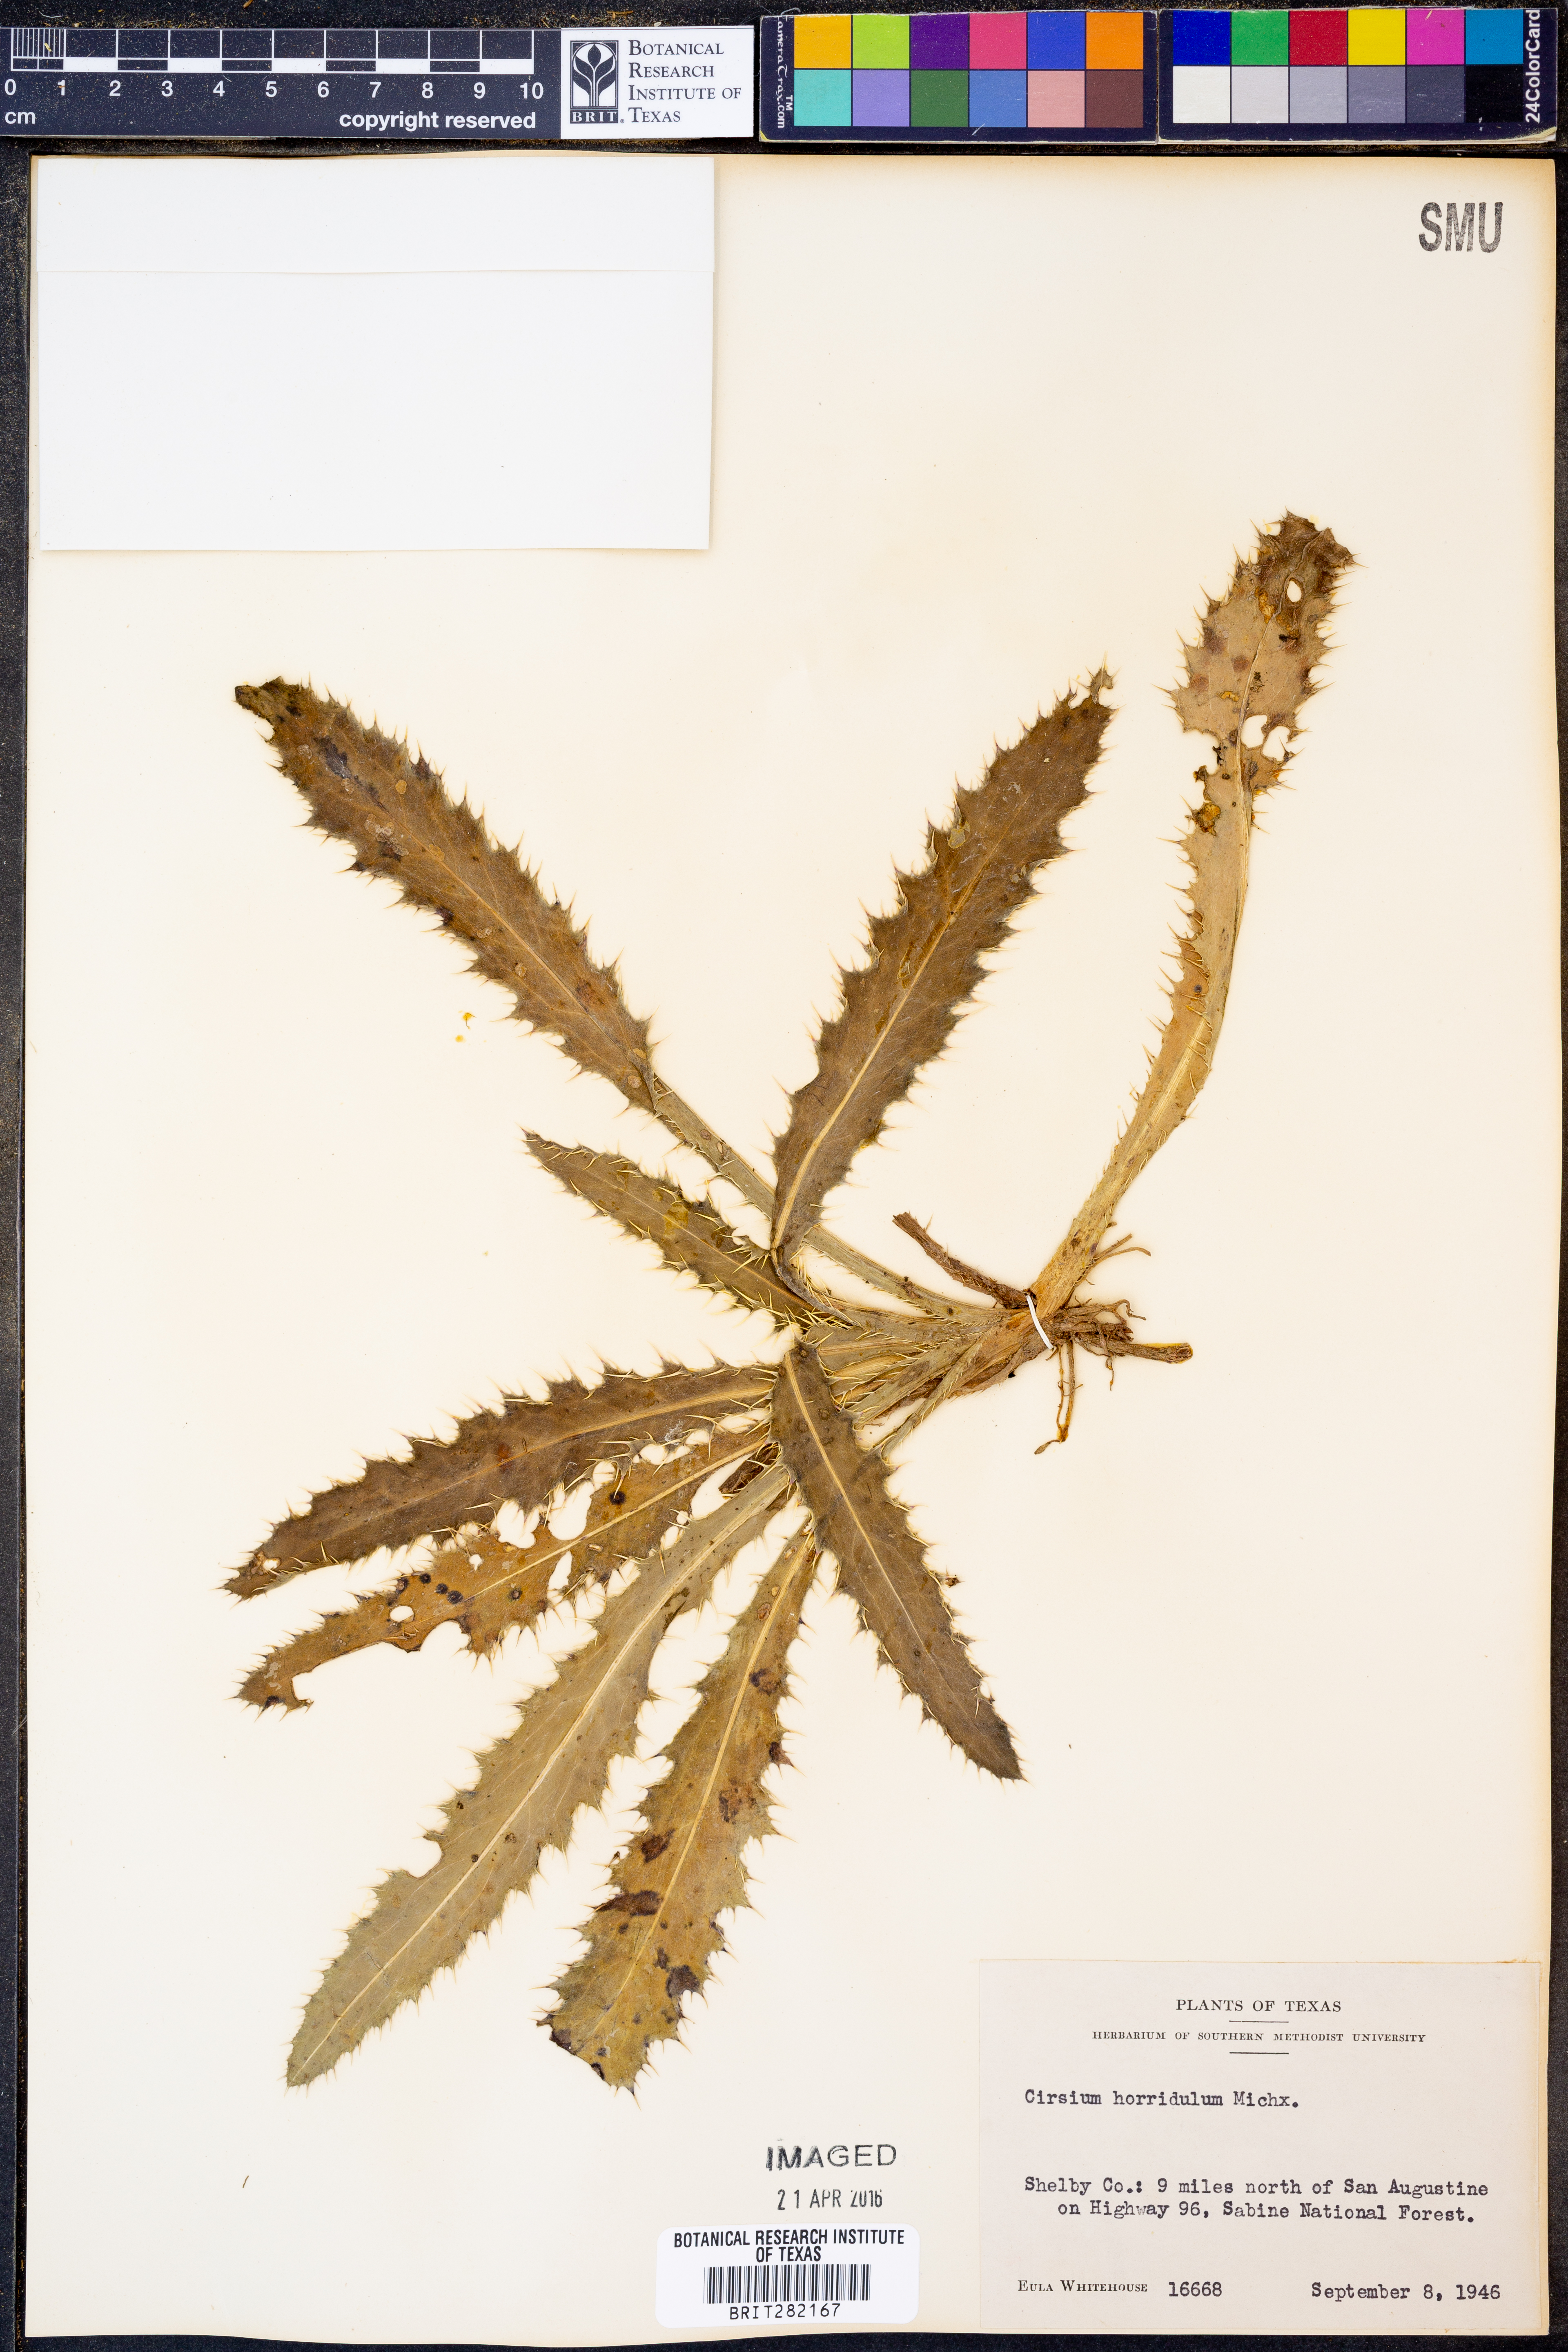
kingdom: Plantae
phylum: Tracheophyta
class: Magnoliopsida
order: Asterales
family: Asteraceae
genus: Cirsium
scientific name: Cirsium horridulum
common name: Bristly thistle
